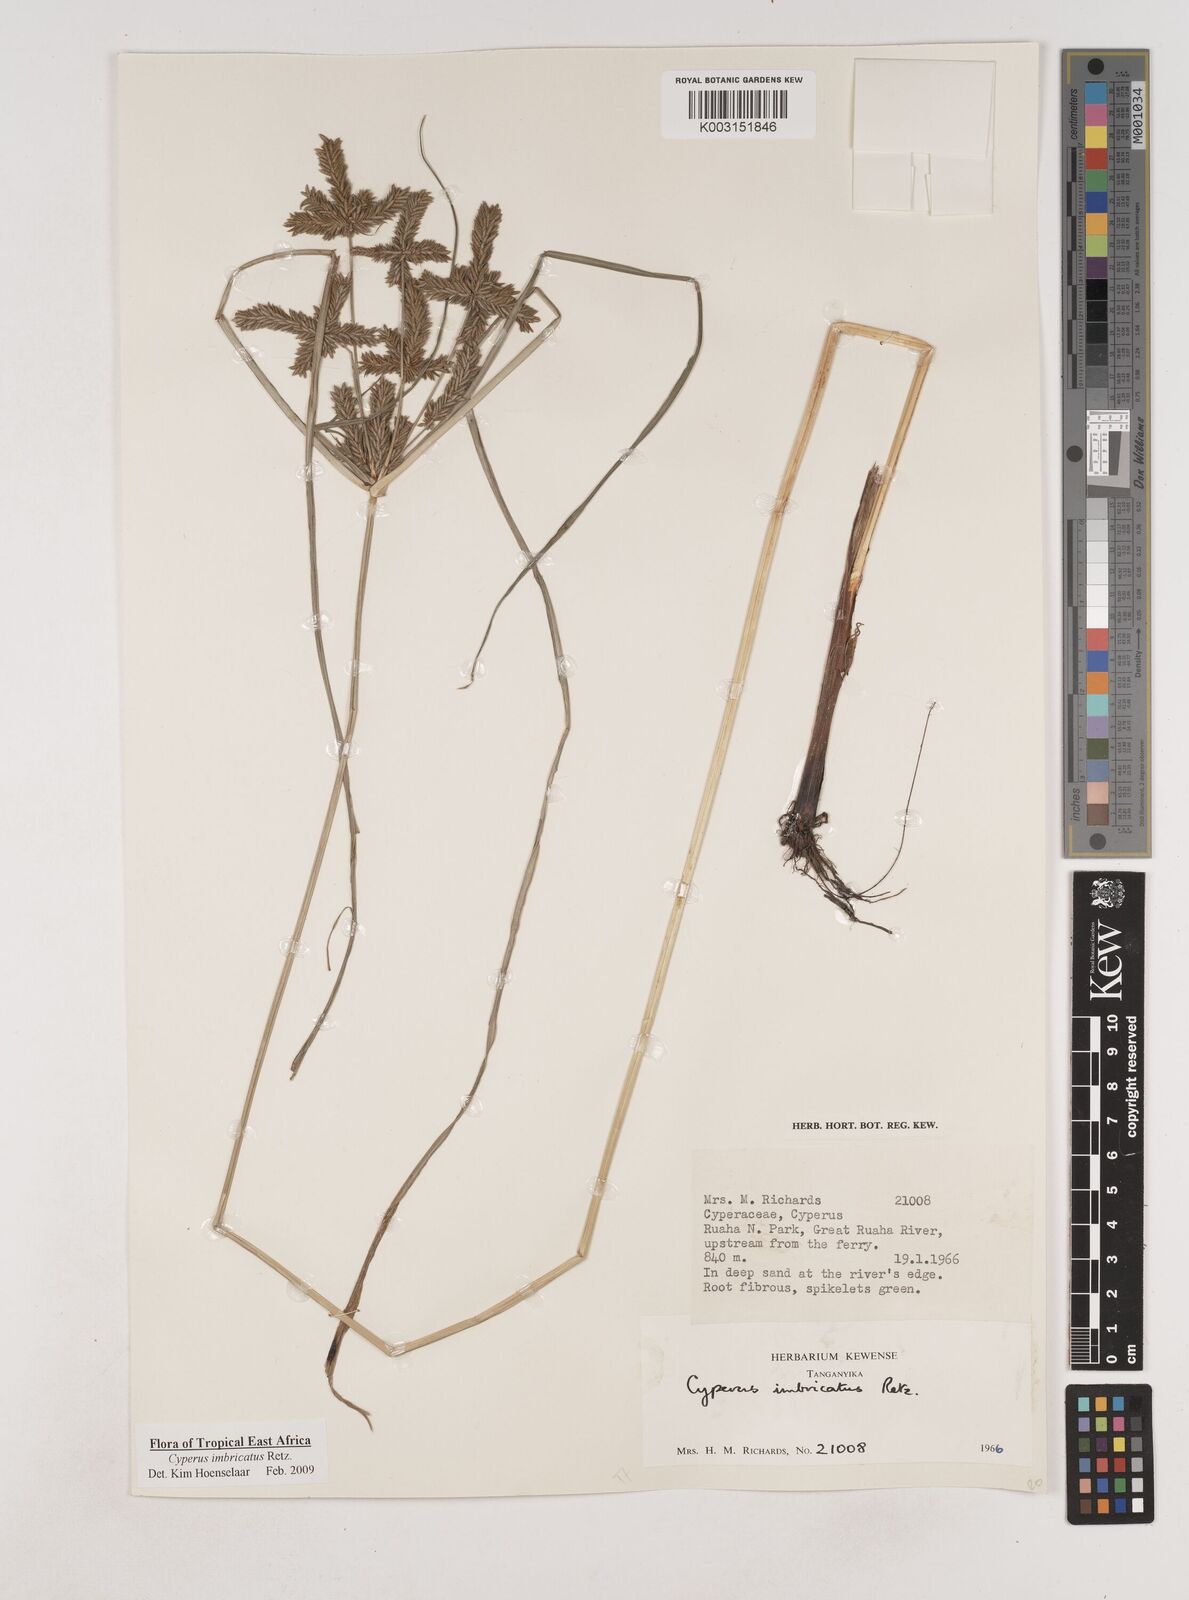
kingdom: Plantae
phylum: Tracheophyta
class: Liliopsida
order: Poales
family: Cyperaceae
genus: Cyperus
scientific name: Cyperus imbricatus
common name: Shingle flatsedge
